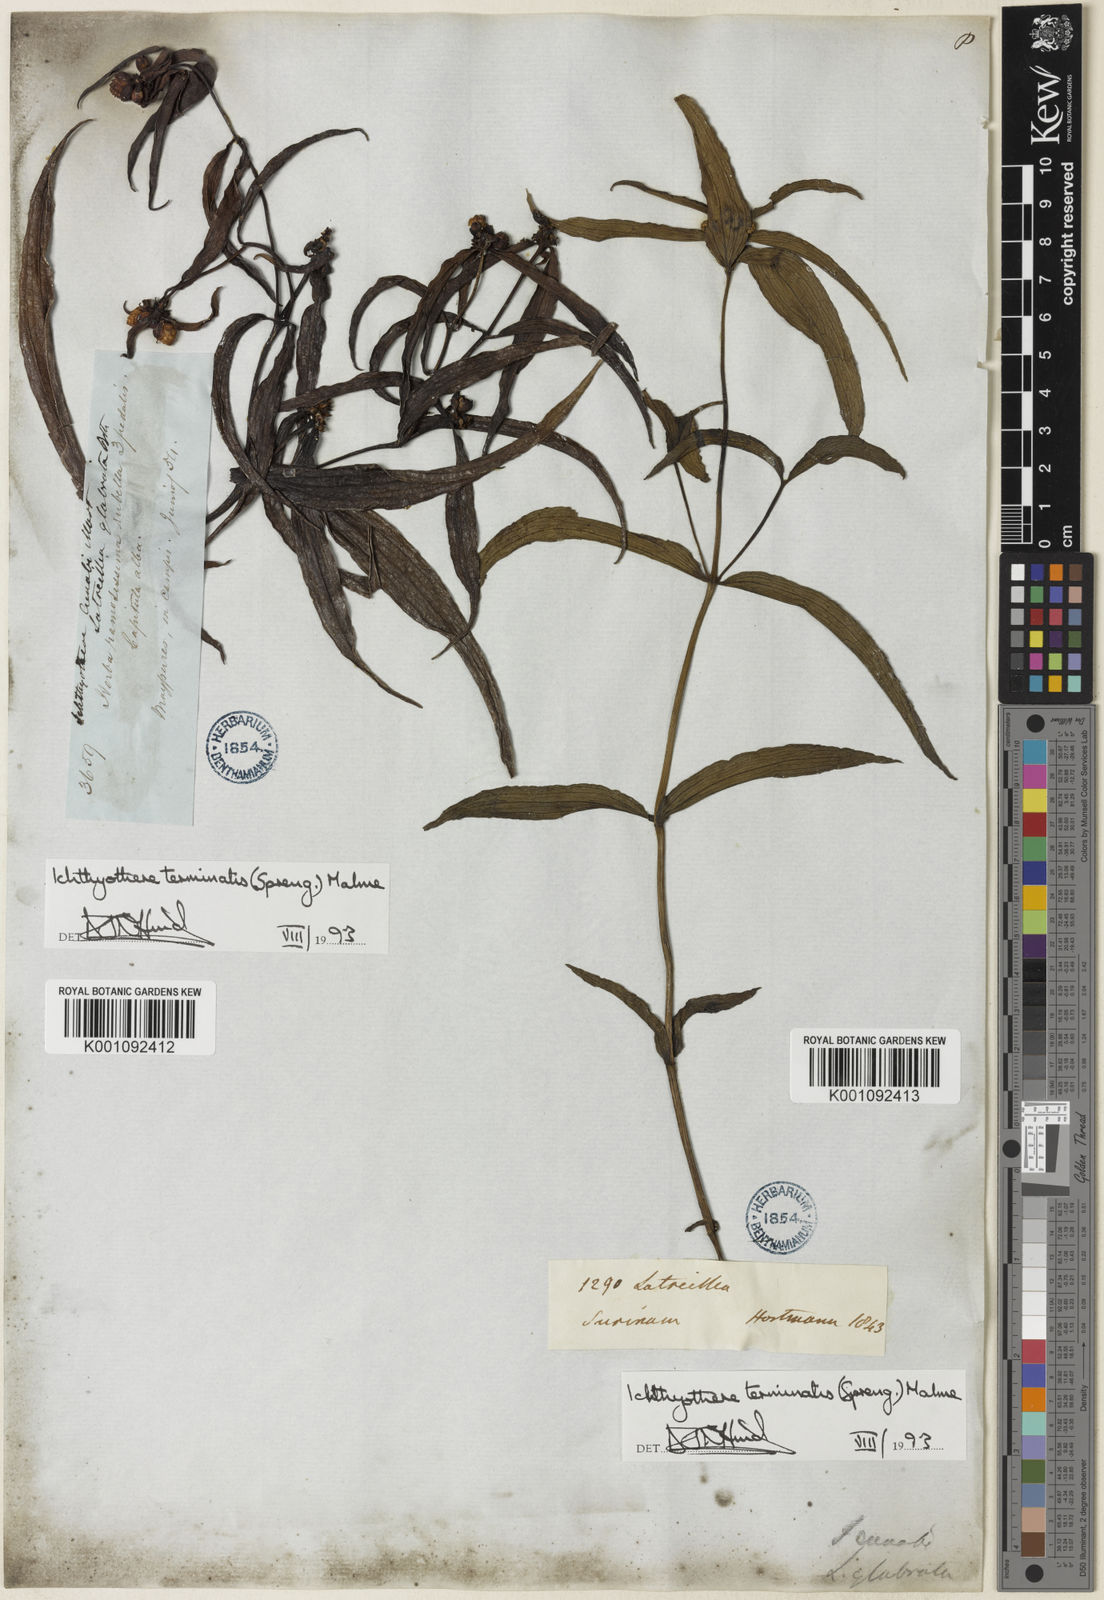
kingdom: Plantae
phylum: Tracheophyta
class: Magnoliopsida
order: Asterales
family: Asteraceae
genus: Ichthyothere
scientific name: Ichthyothere
